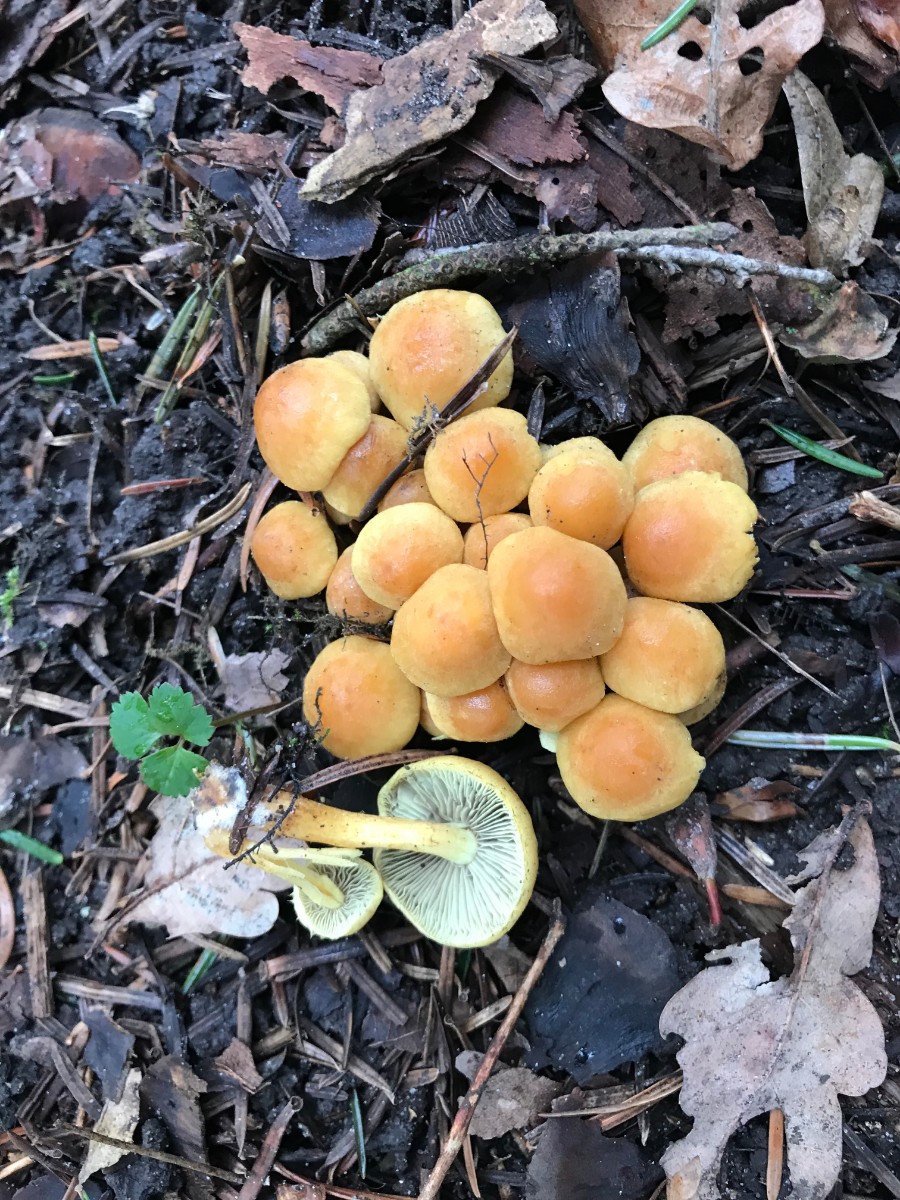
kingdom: Fungi
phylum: Basidiomycota
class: Agaricomycetes
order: Agaricales
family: Strophariaceae
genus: Hypholoma
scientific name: Hypholoma fasciculare
